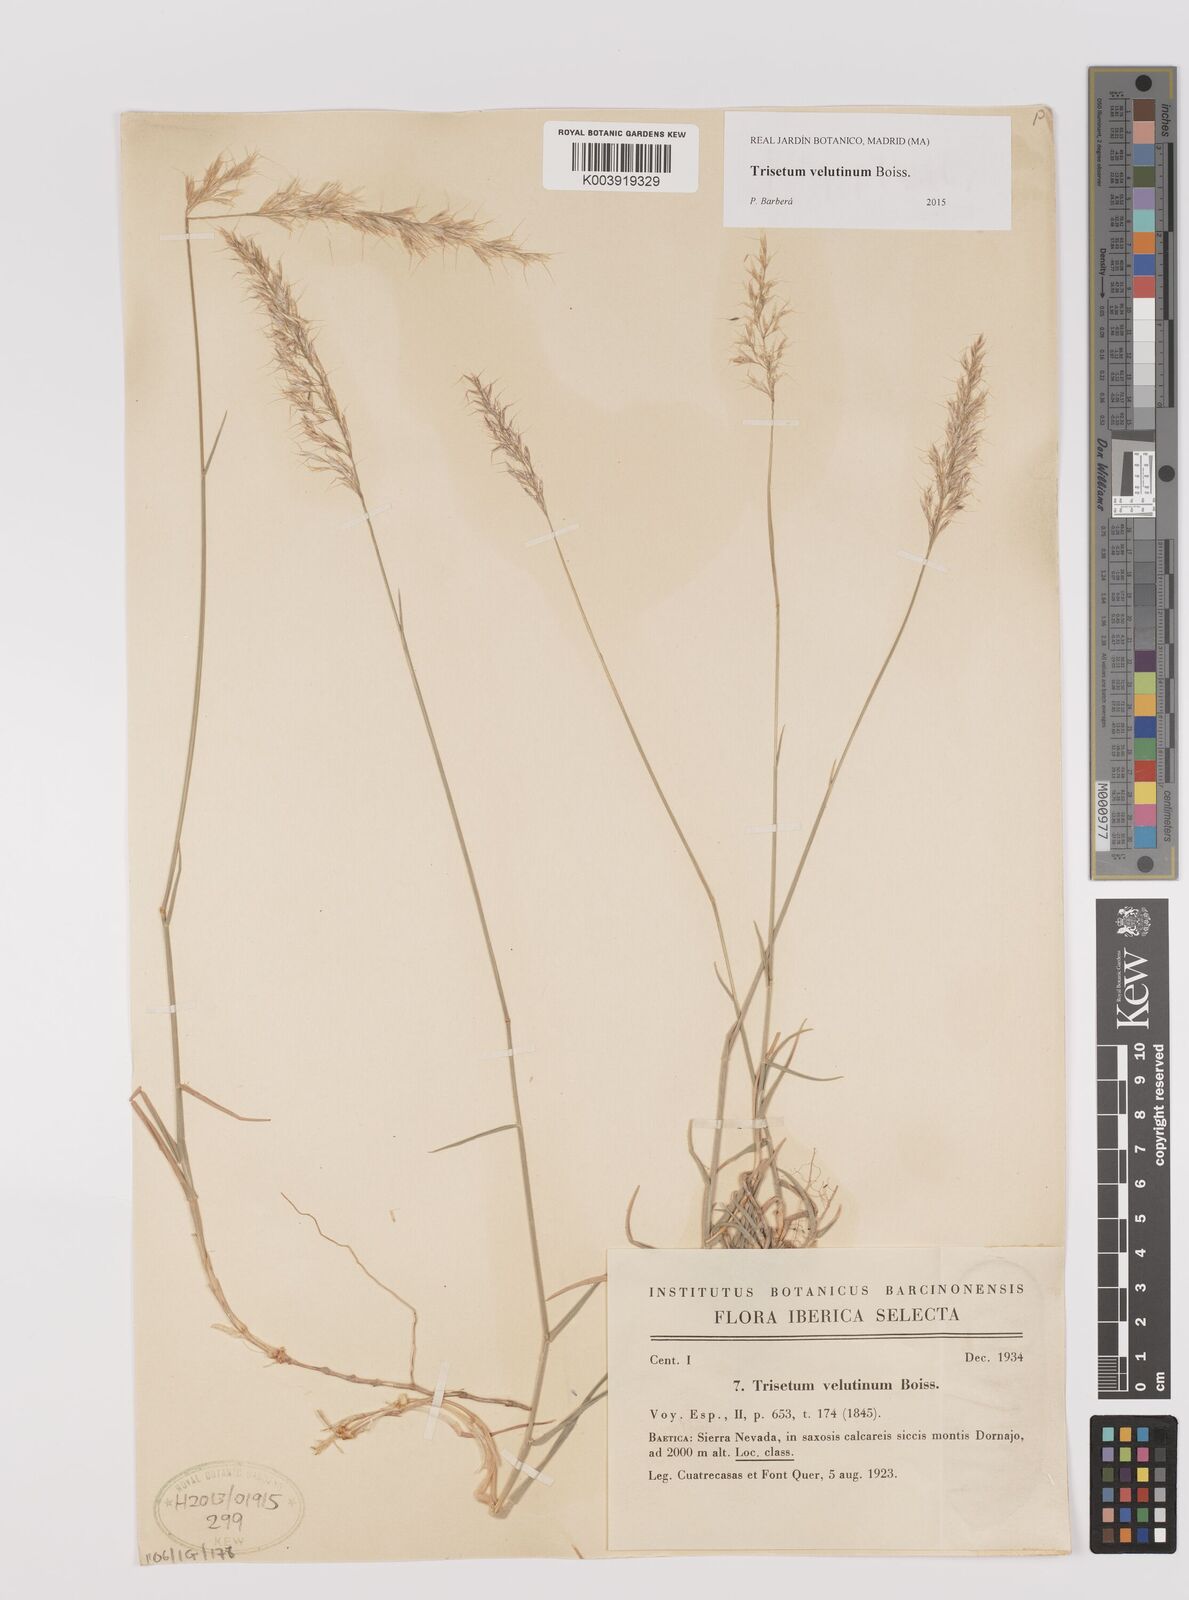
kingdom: Plantae
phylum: Tracheophyta
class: Liliopsida
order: Poales
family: Poaceae
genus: Trisetum
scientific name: Trisetum velutinum
